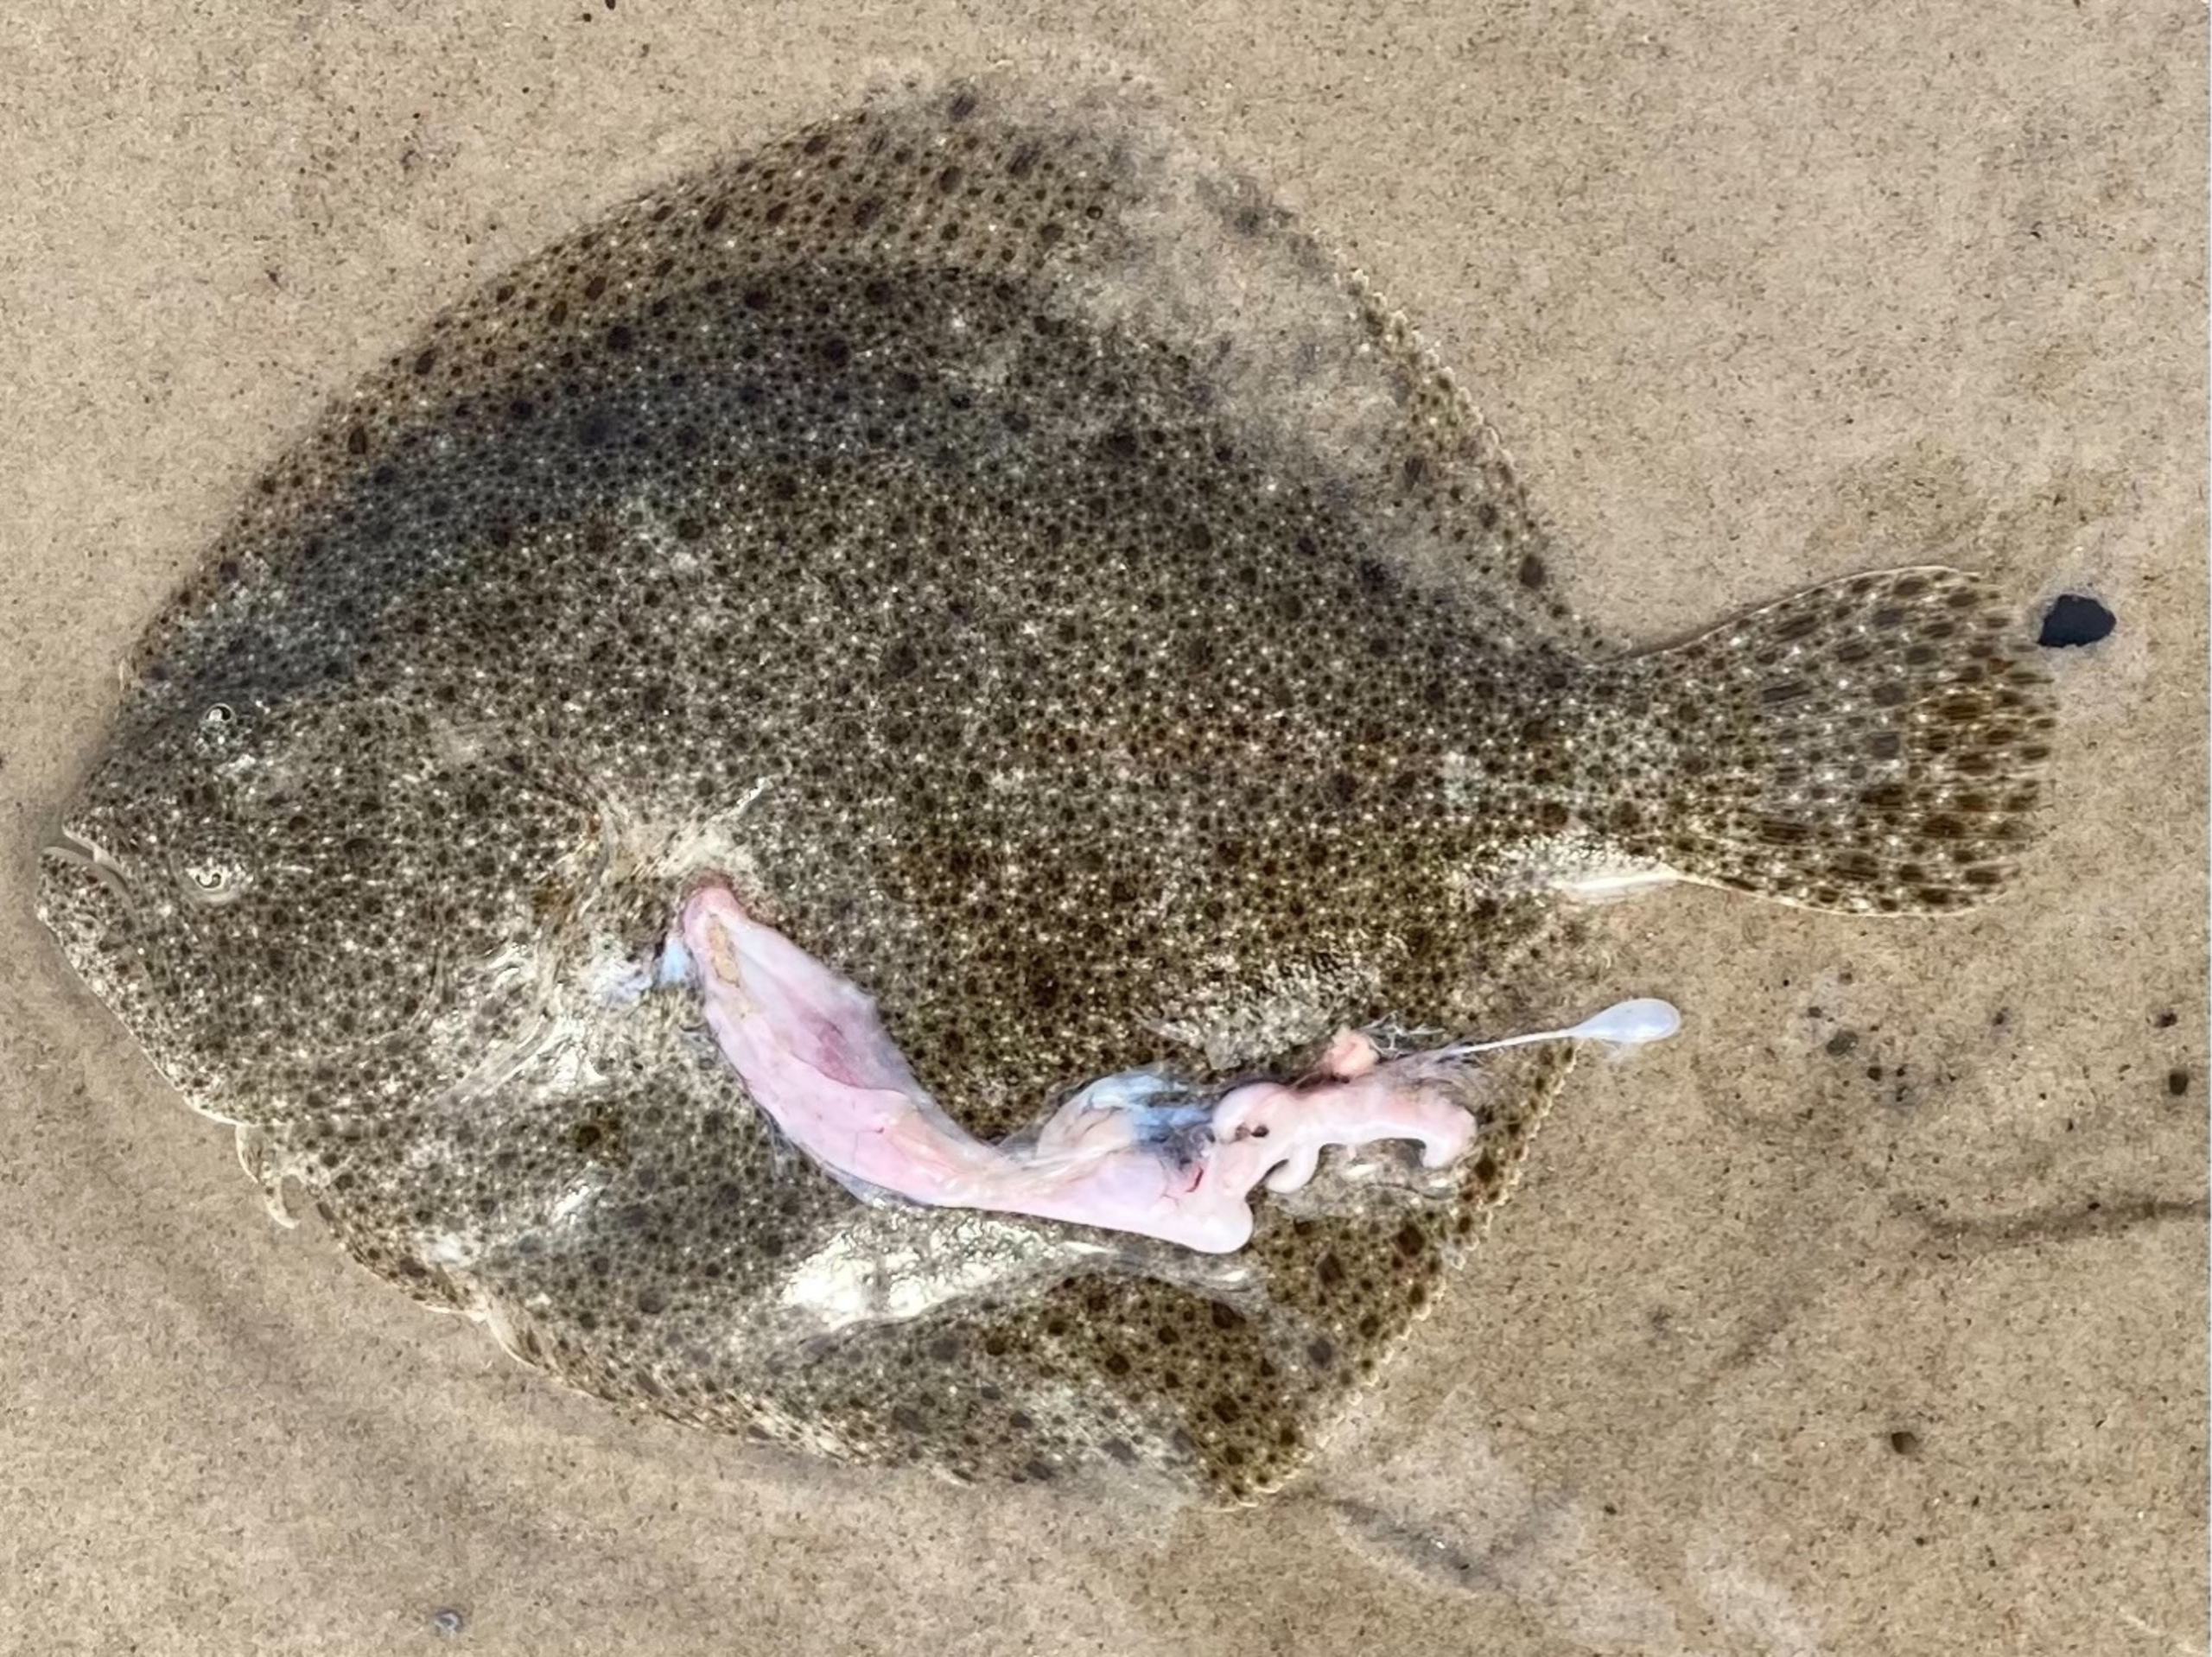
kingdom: Animalia
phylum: Chordata
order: Pleuronectiformes
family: Scophthalmidae
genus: Scophthalmus
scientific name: Scophthalmus maximus
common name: Pighvarre
